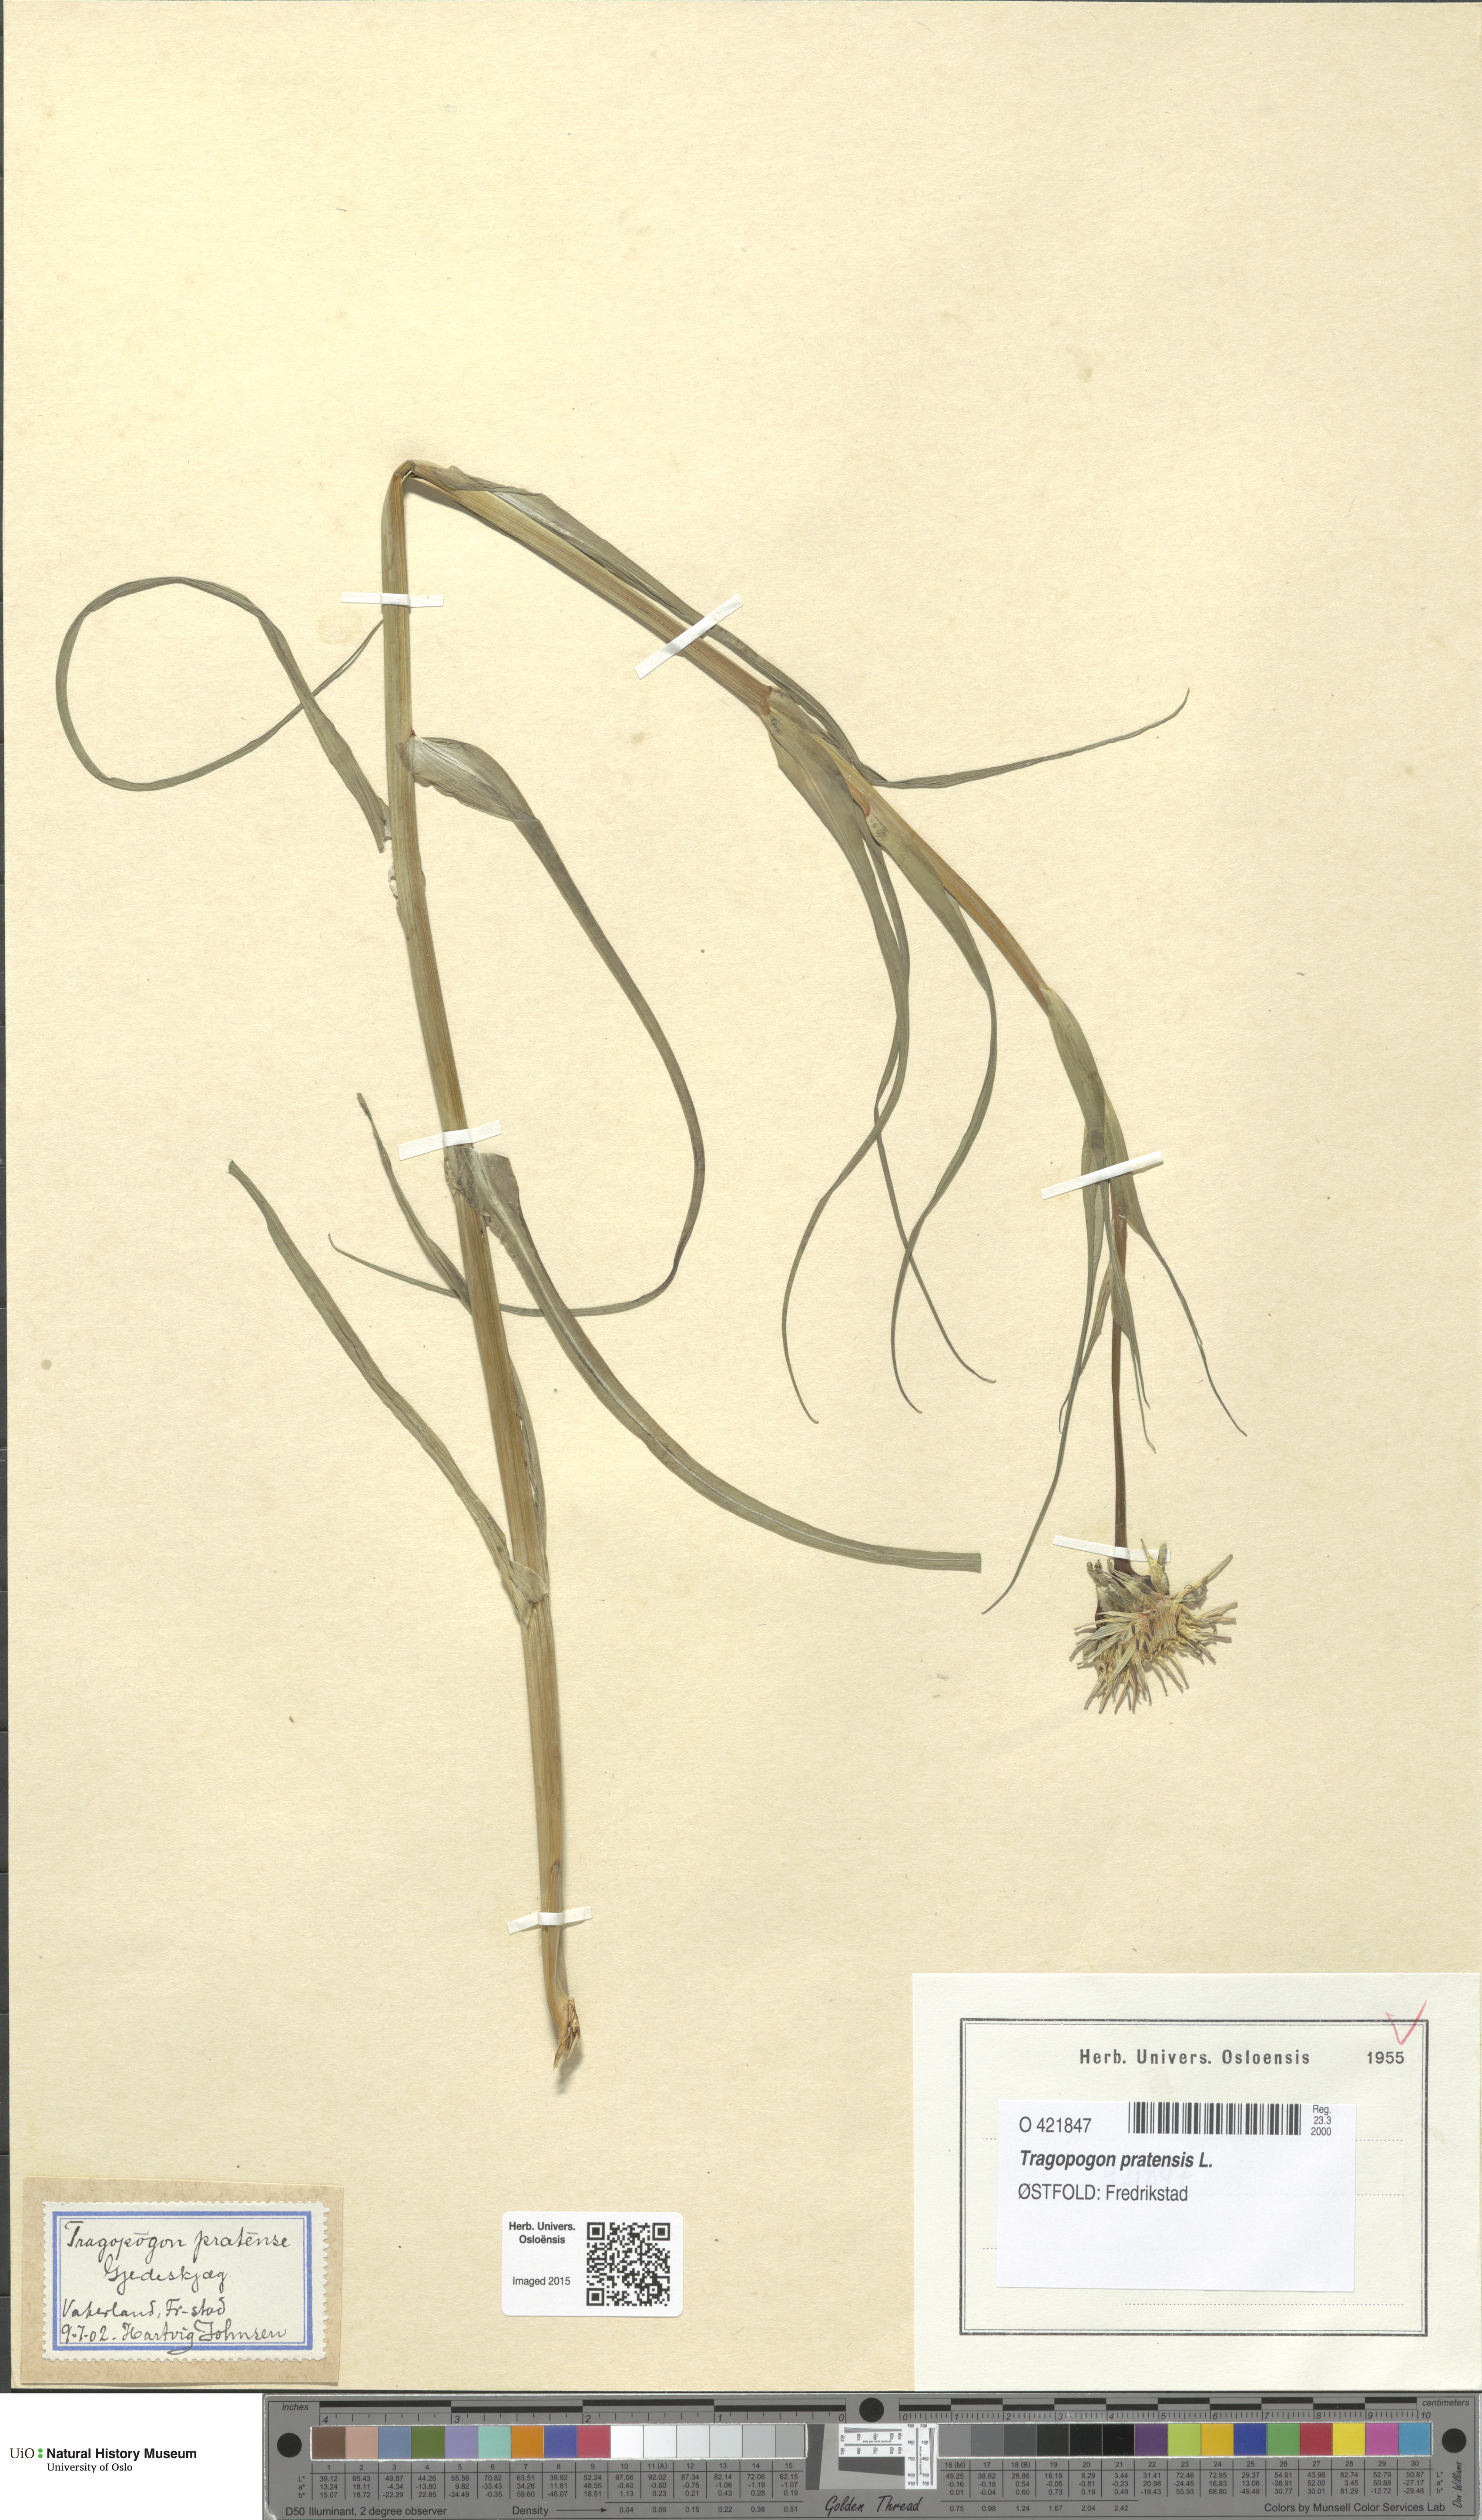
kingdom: Plantae
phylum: Tracheophyta
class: Magnoliopsida
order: Asterales
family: Asteraceae
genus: Tragopogon
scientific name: Tragopogon pratensis
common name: Goat's-beard
